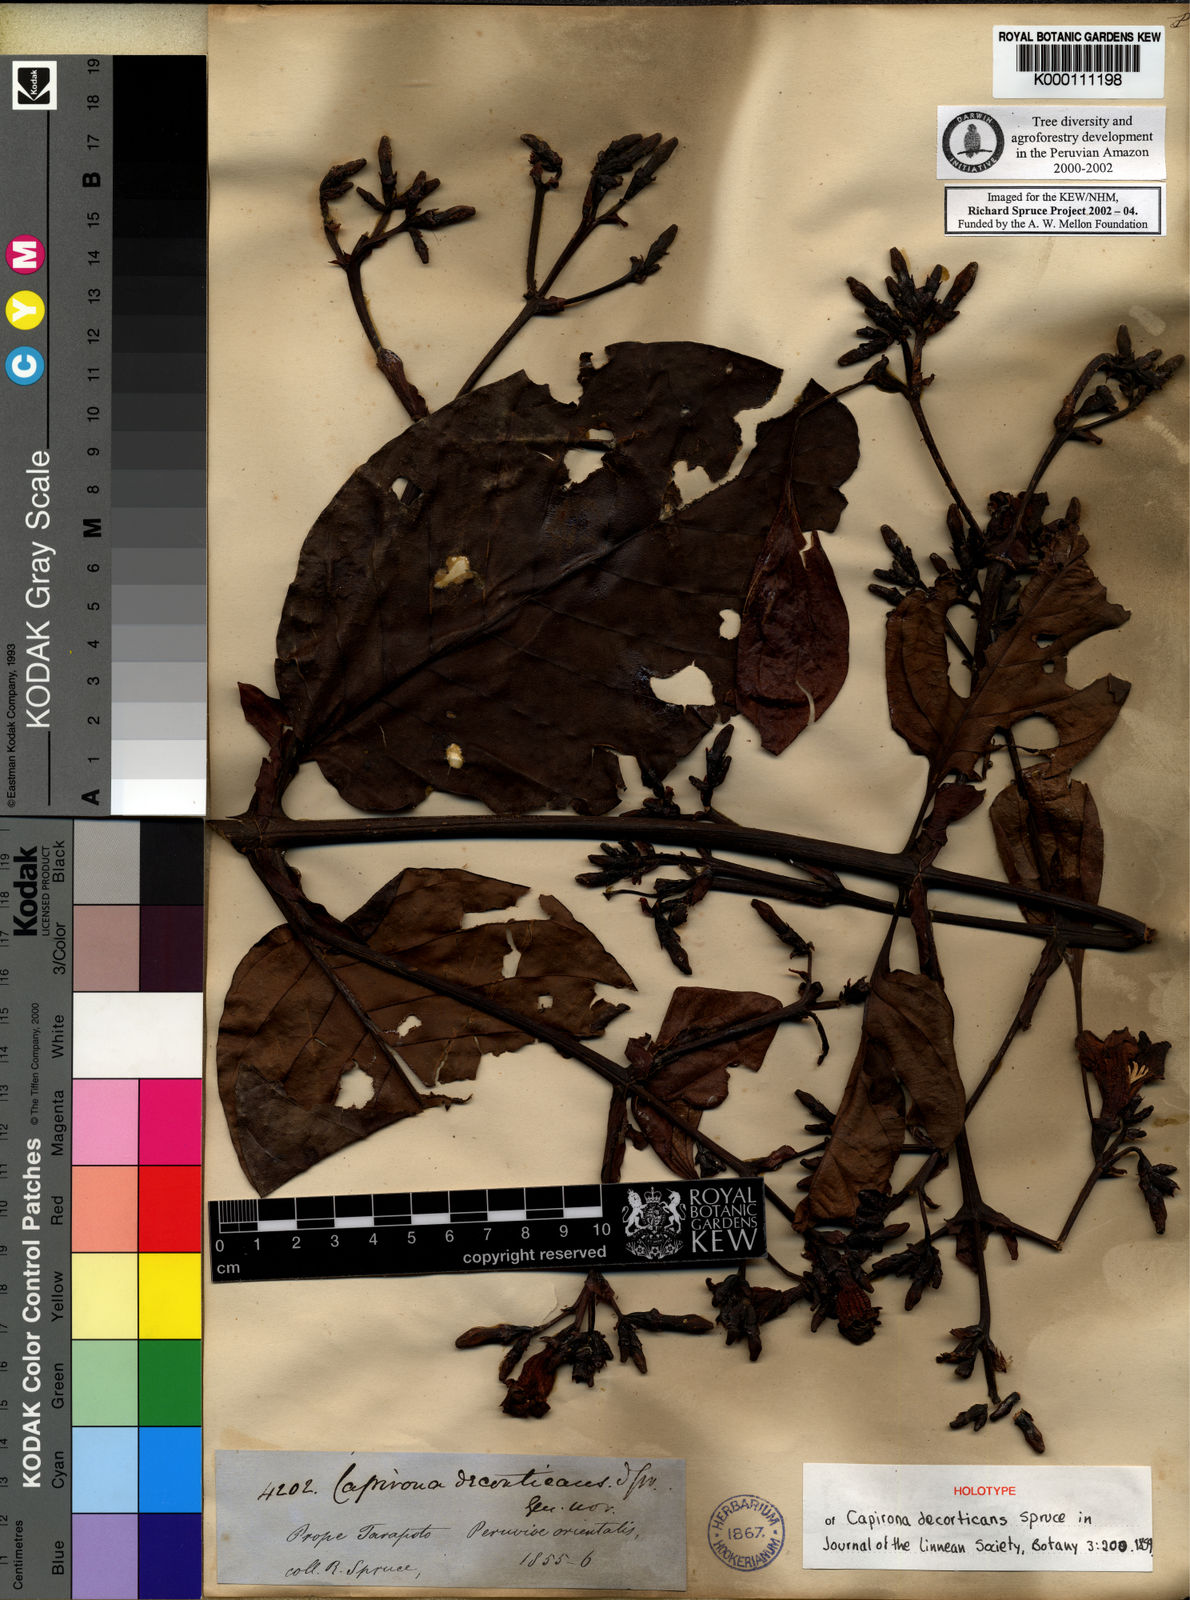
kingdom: Plantae
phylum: Tracheophyta
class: Magnoliopsida
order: Gentianales
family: Rubiaceae
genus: Capirona
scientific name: Capirona macrophylla
